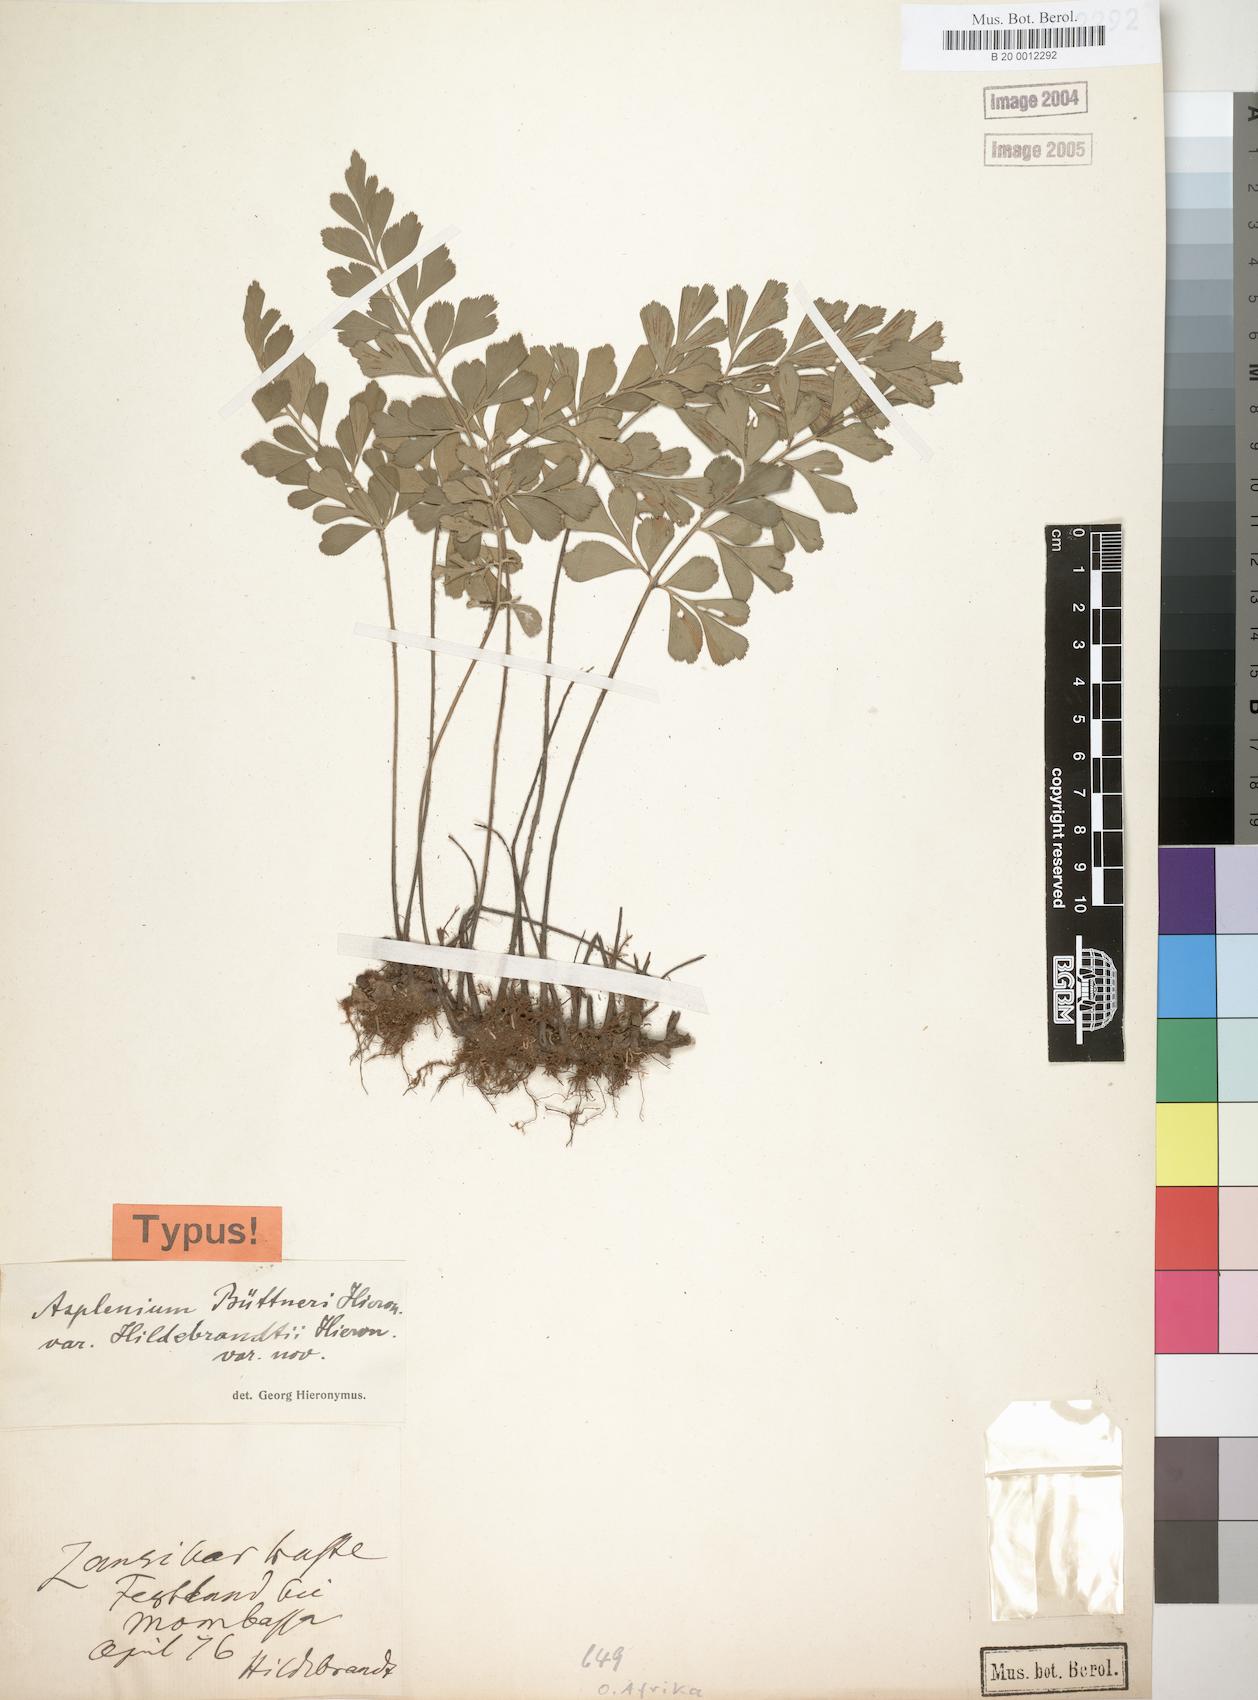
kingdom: Plantae
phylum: Tracheophyta
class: Polypodiopsida
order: Polypodiales
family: Aspleniaceae
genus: Asplenium
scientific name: Asplenium hildebrandtianum
